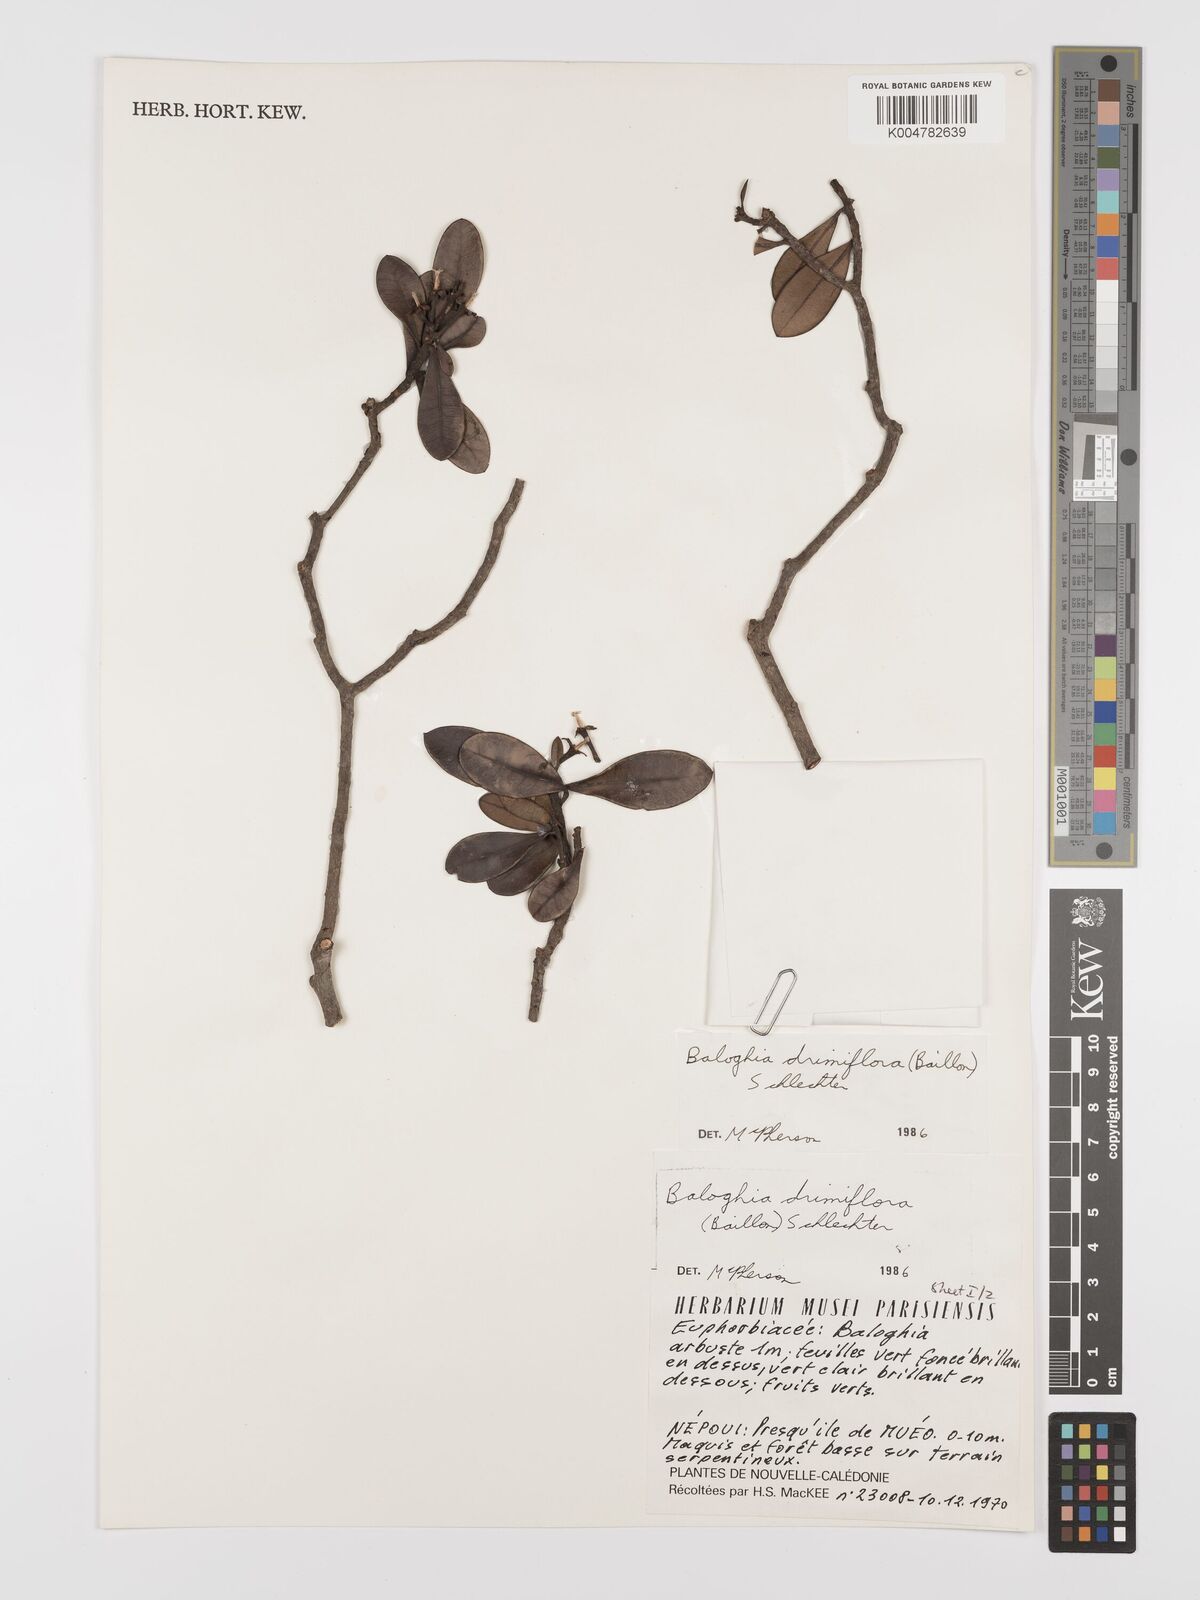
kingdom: Plantae
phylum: Tracheophyta
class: Magnoliopsida
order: Malpighiales
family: Euphorbiaceae
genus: Baloghia
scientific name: Baloghia drimiflora
